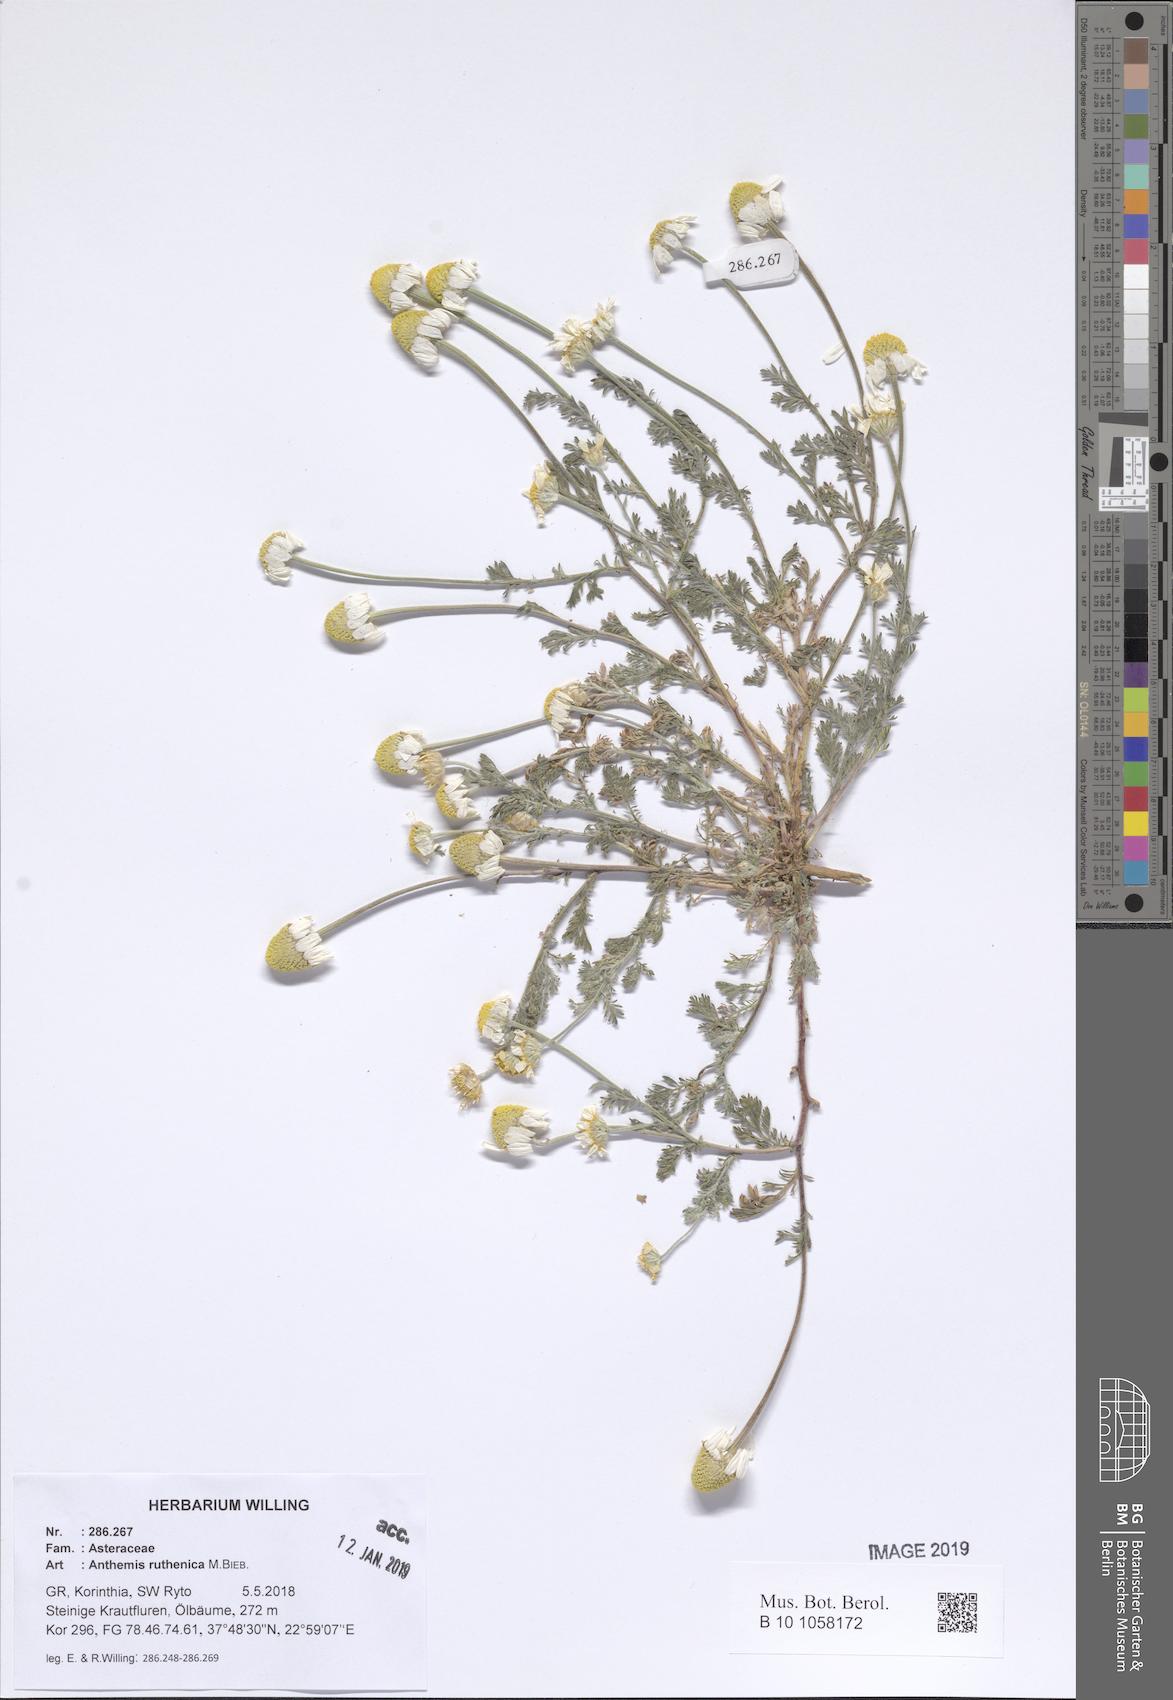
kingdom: Plantae
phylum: Tracheophyta
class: Magnoliopsida
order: Asterales
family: Asteraceae
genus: Anthemis
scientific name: Anthemis ruthenica
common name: Eastern chamomile
